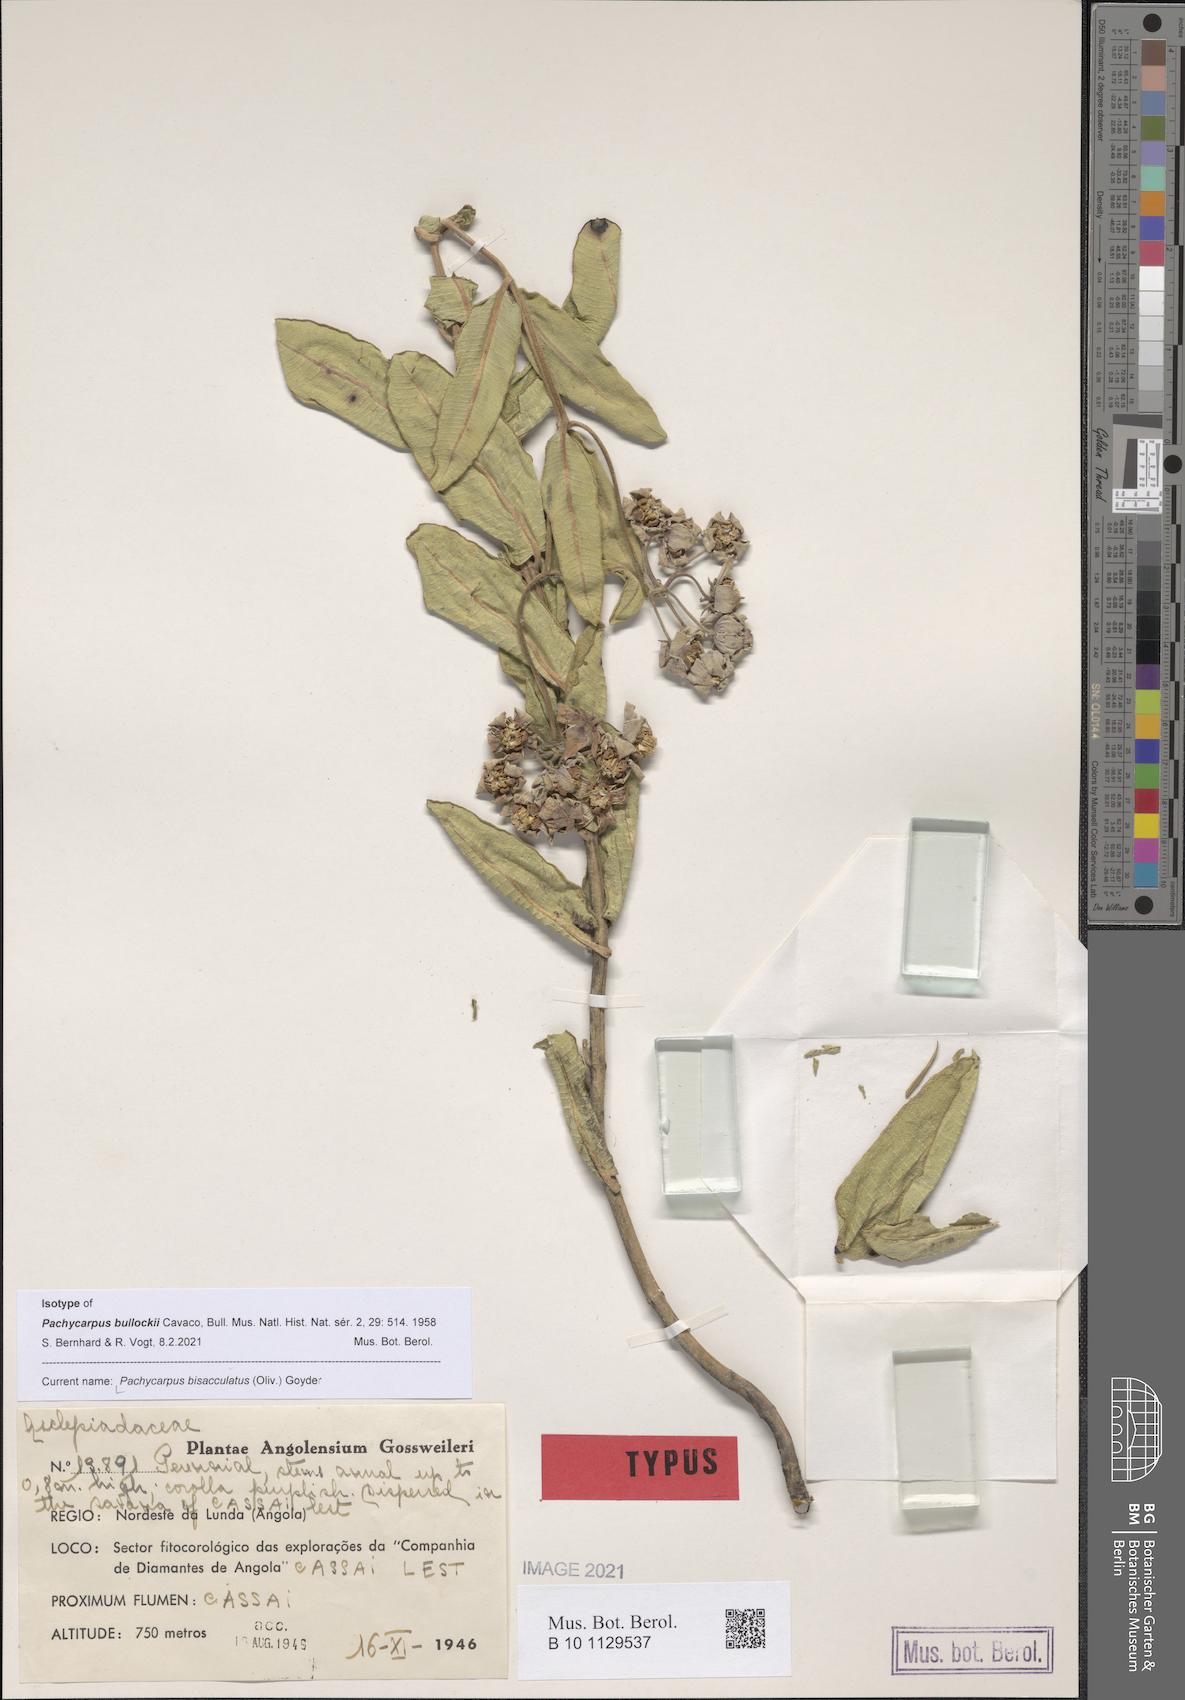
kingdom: Plantae
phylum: Tracheophyta
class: Magnoliopsida
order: Gentianales
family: Apocynaceae
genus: Pachycarpus
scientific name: Pachycarpus bisacculatus
